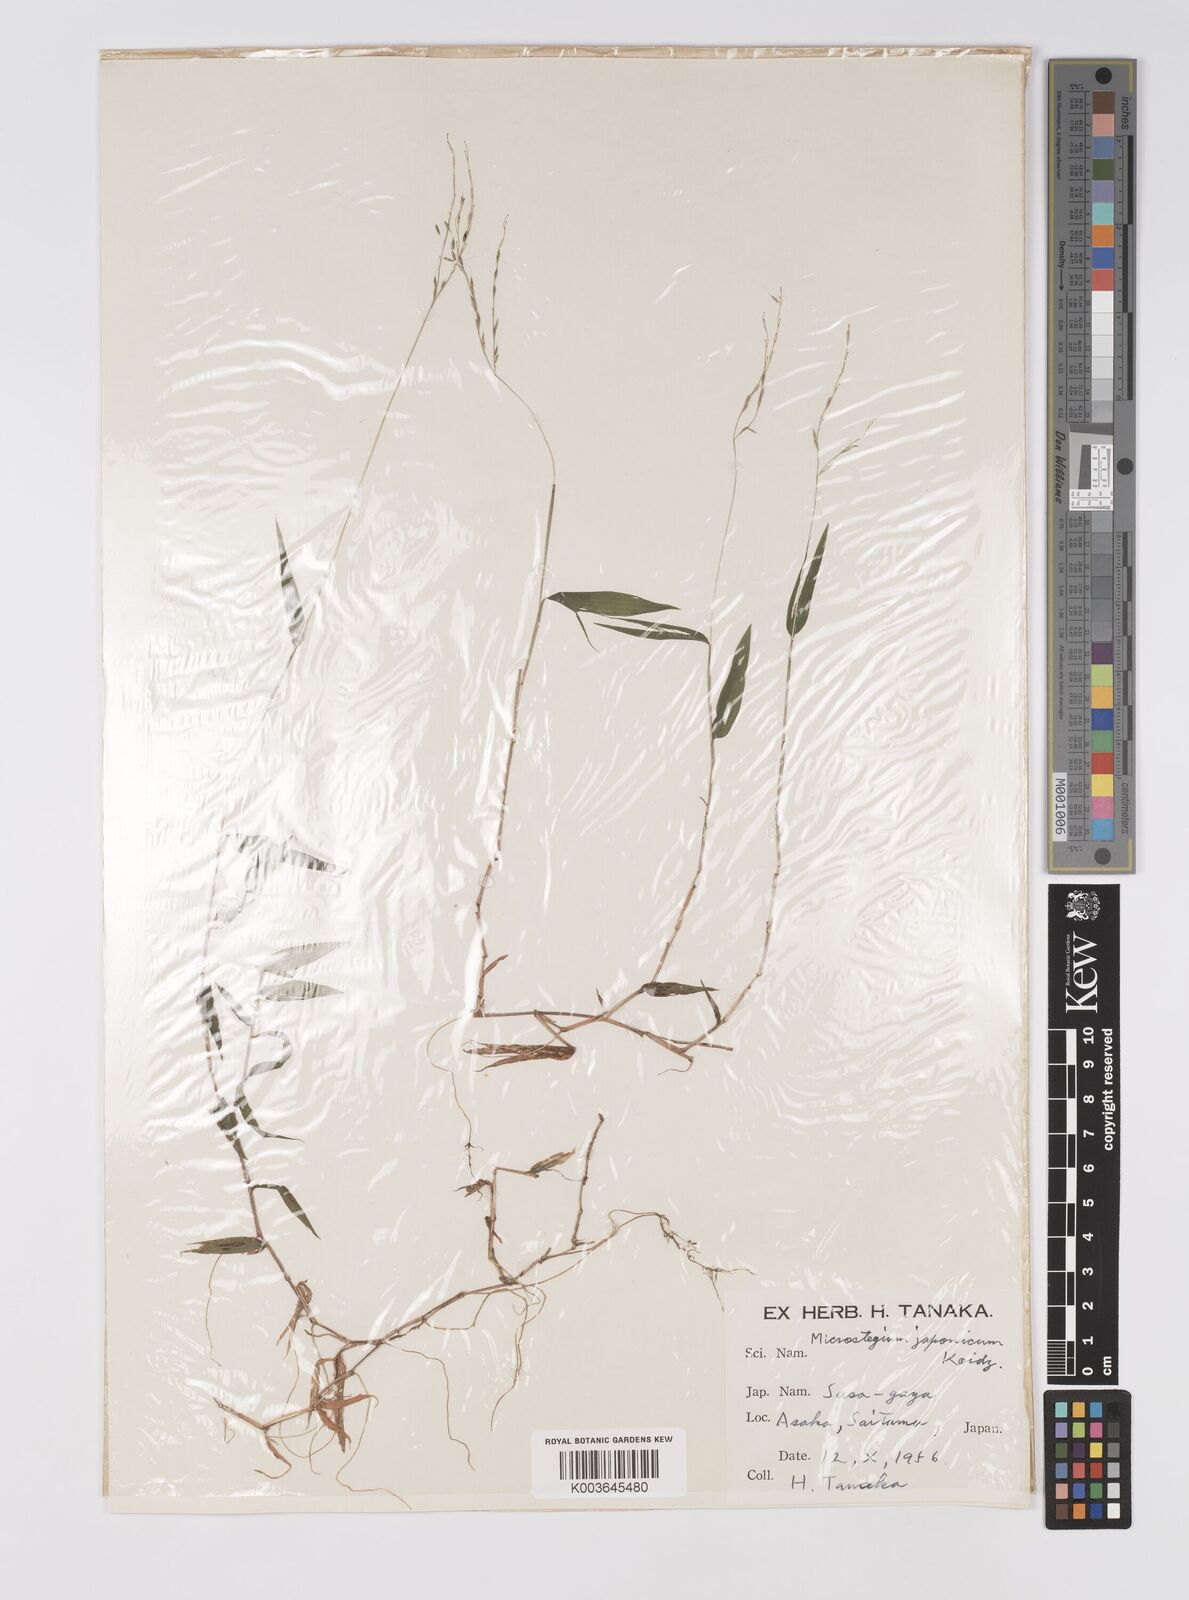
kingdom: Plantae
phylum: Tracheophyta
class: Liliopsida
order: Poales
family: Poaceae
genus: Microstegium
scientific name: Microstegium japonicum
